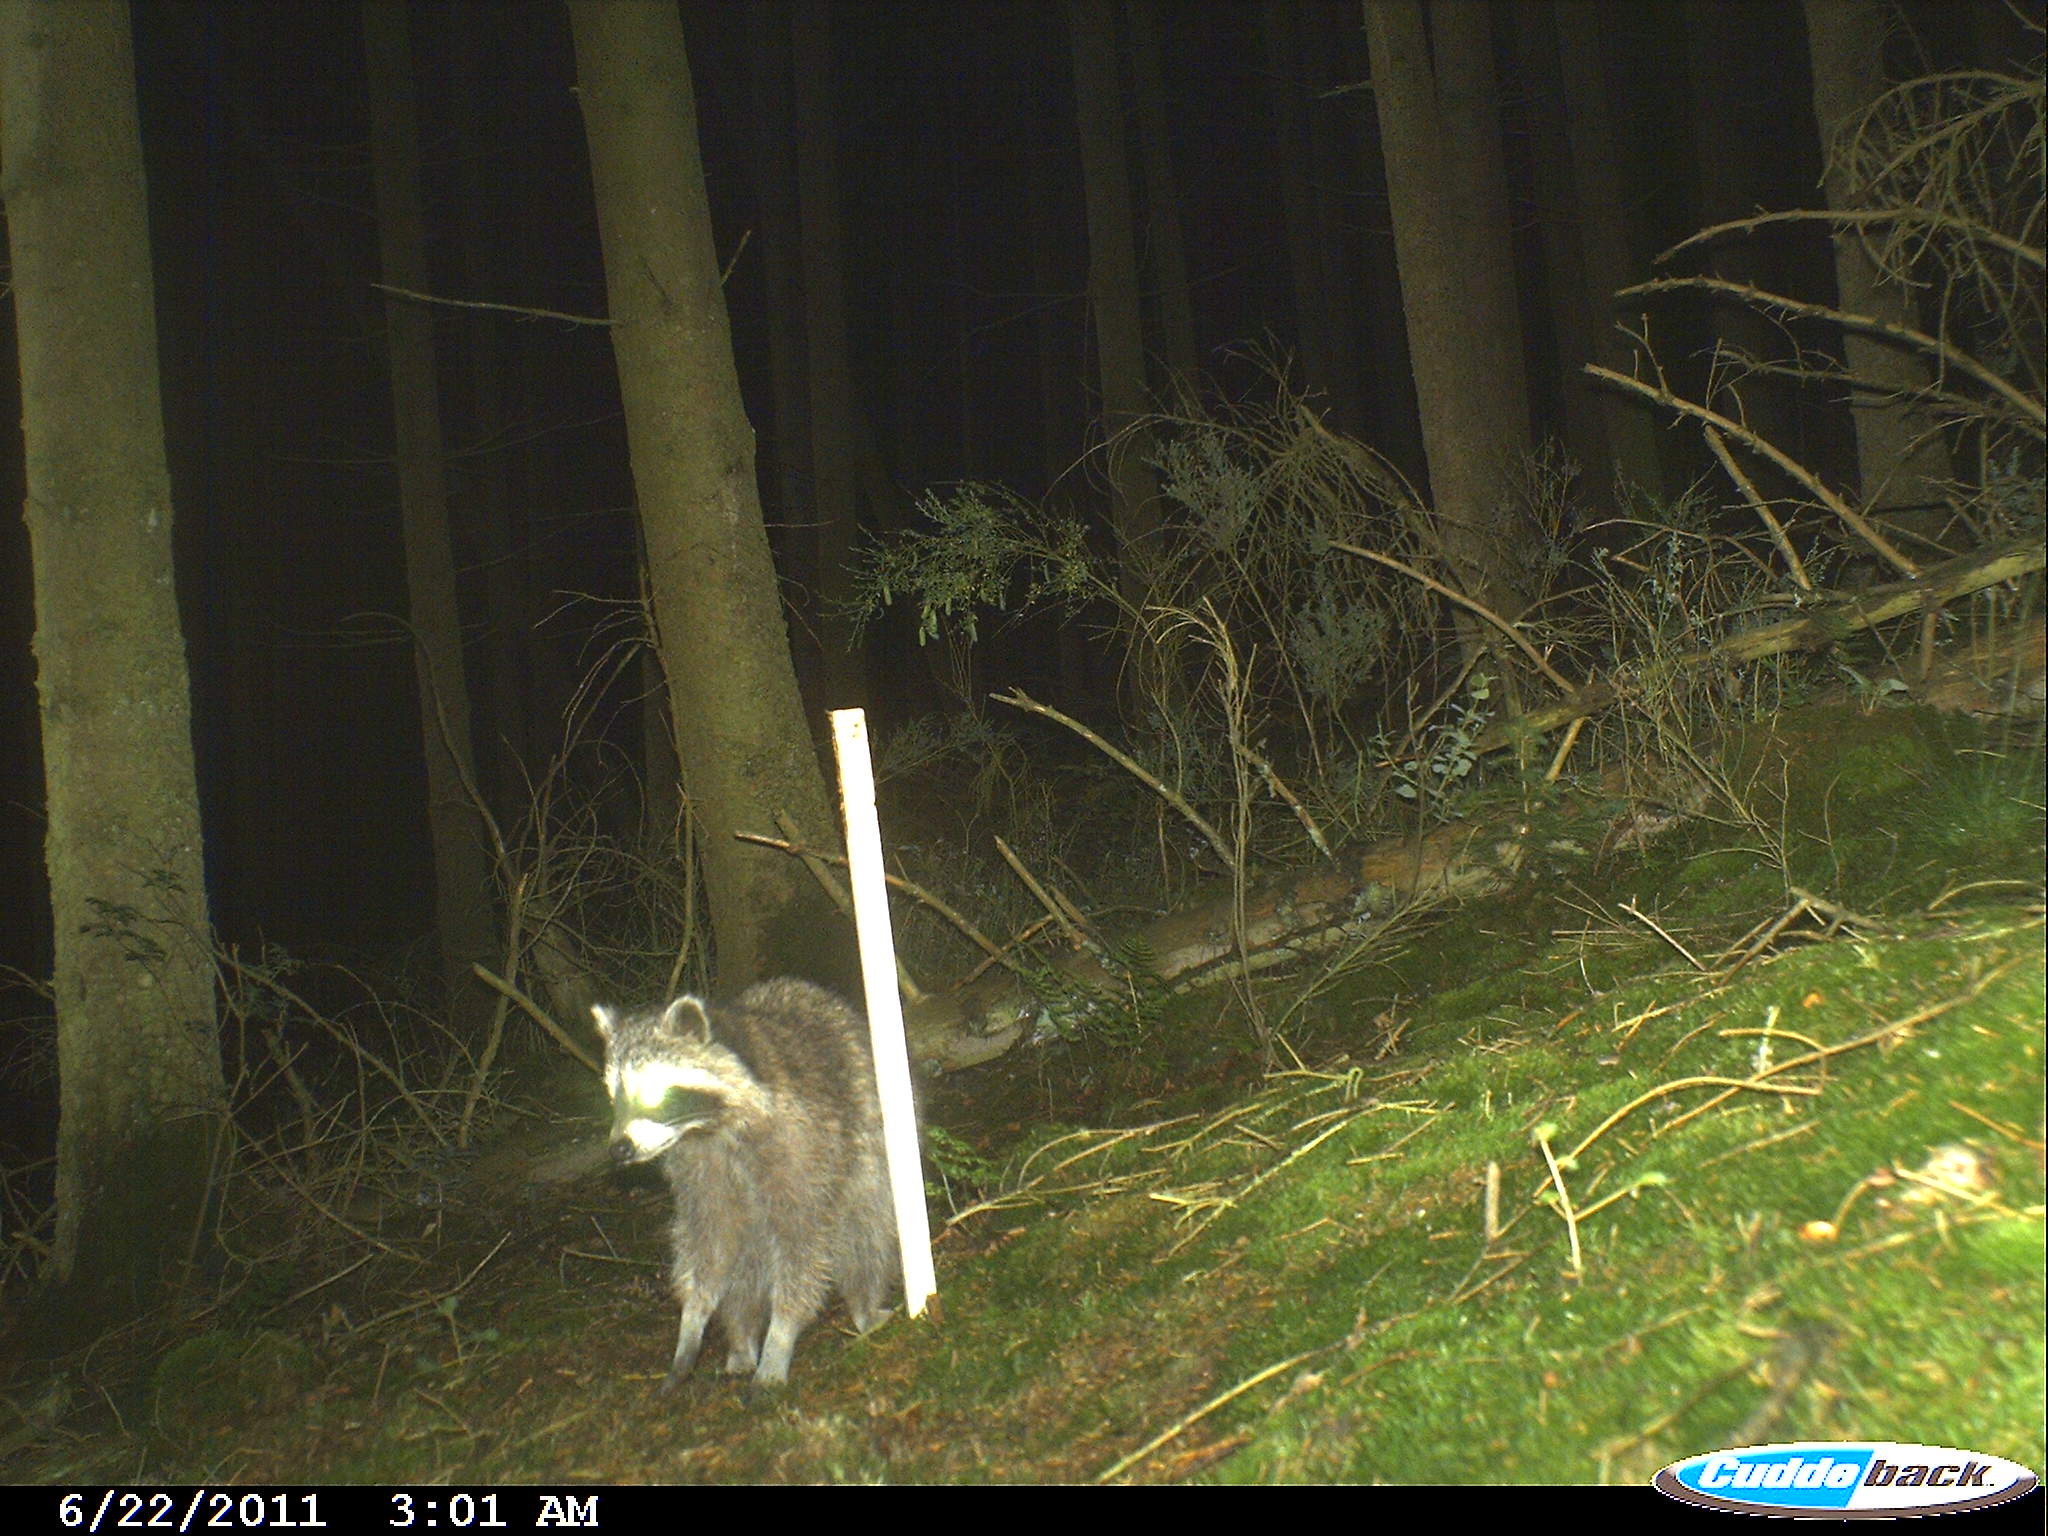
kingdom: Animalia
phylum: Chordata
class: Mammalia
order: Carnivora
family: Procyonidae
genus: Procyon
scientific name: Procyon lotor
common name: Raccoon
